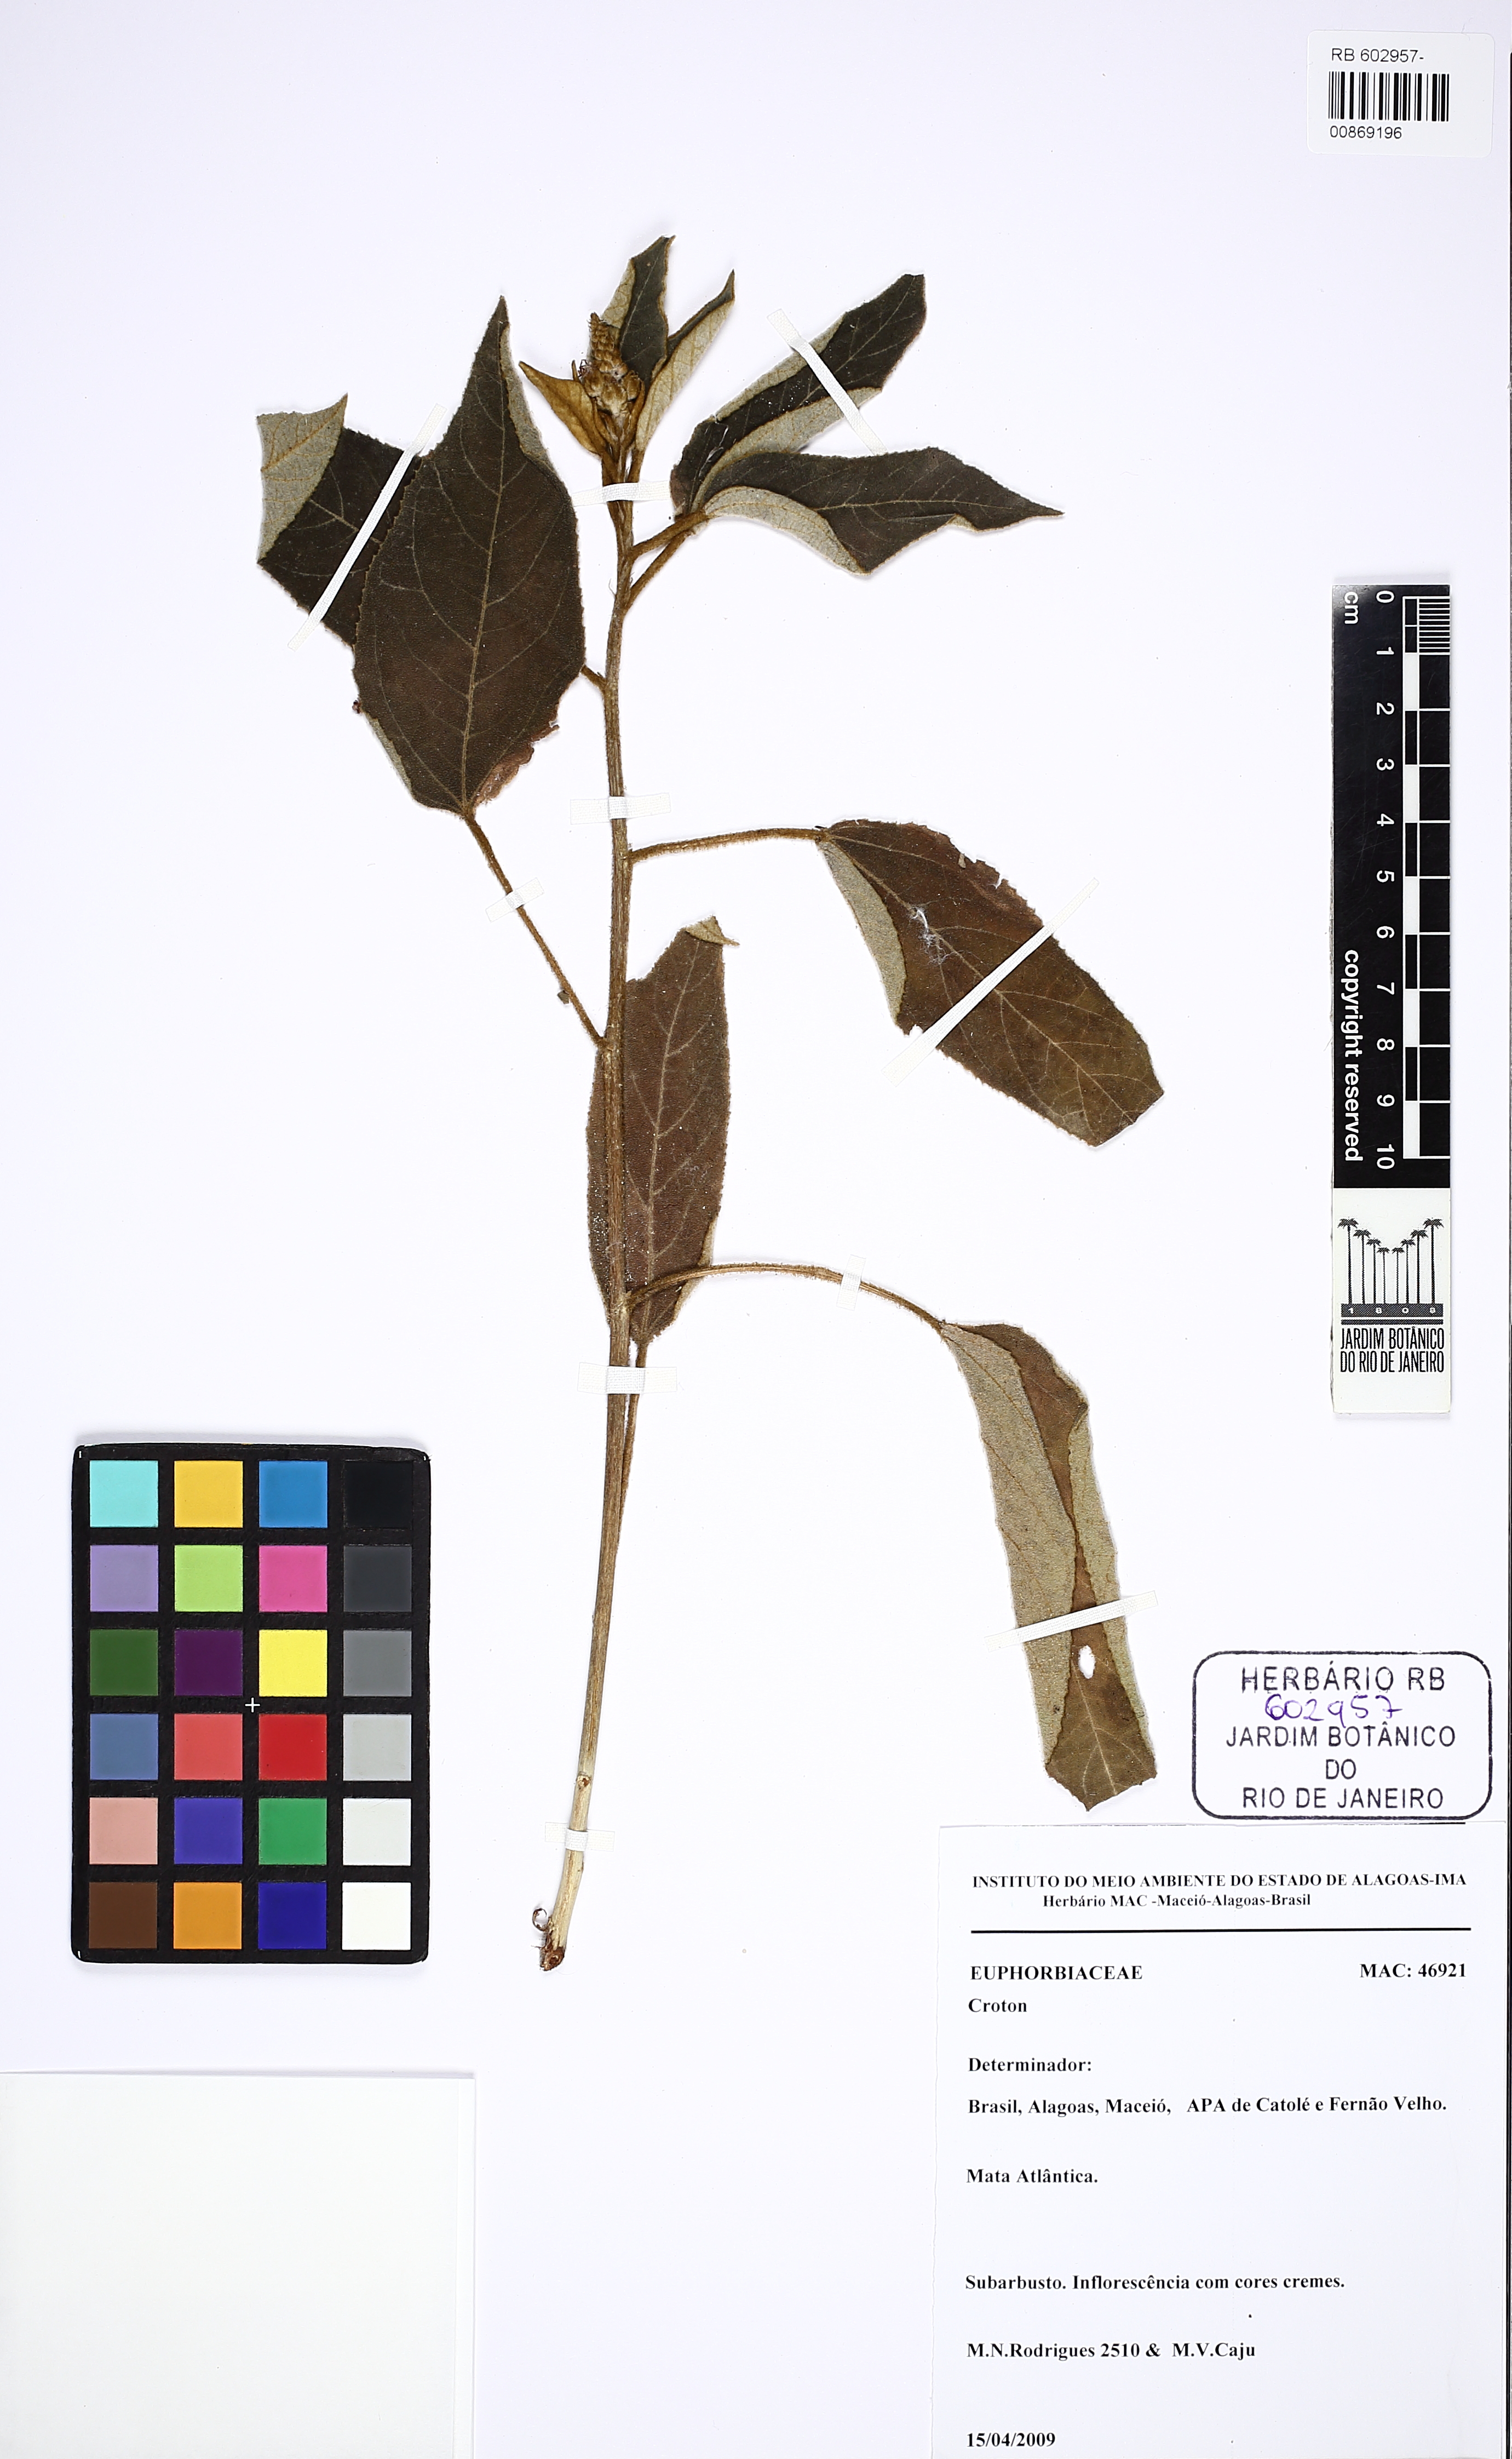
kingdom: Plantae
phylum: Tracheophyta
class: Magnoliopsida
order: Malpighiales
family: Euphorbiaceae
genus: Croton
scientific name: Croton triqueter
